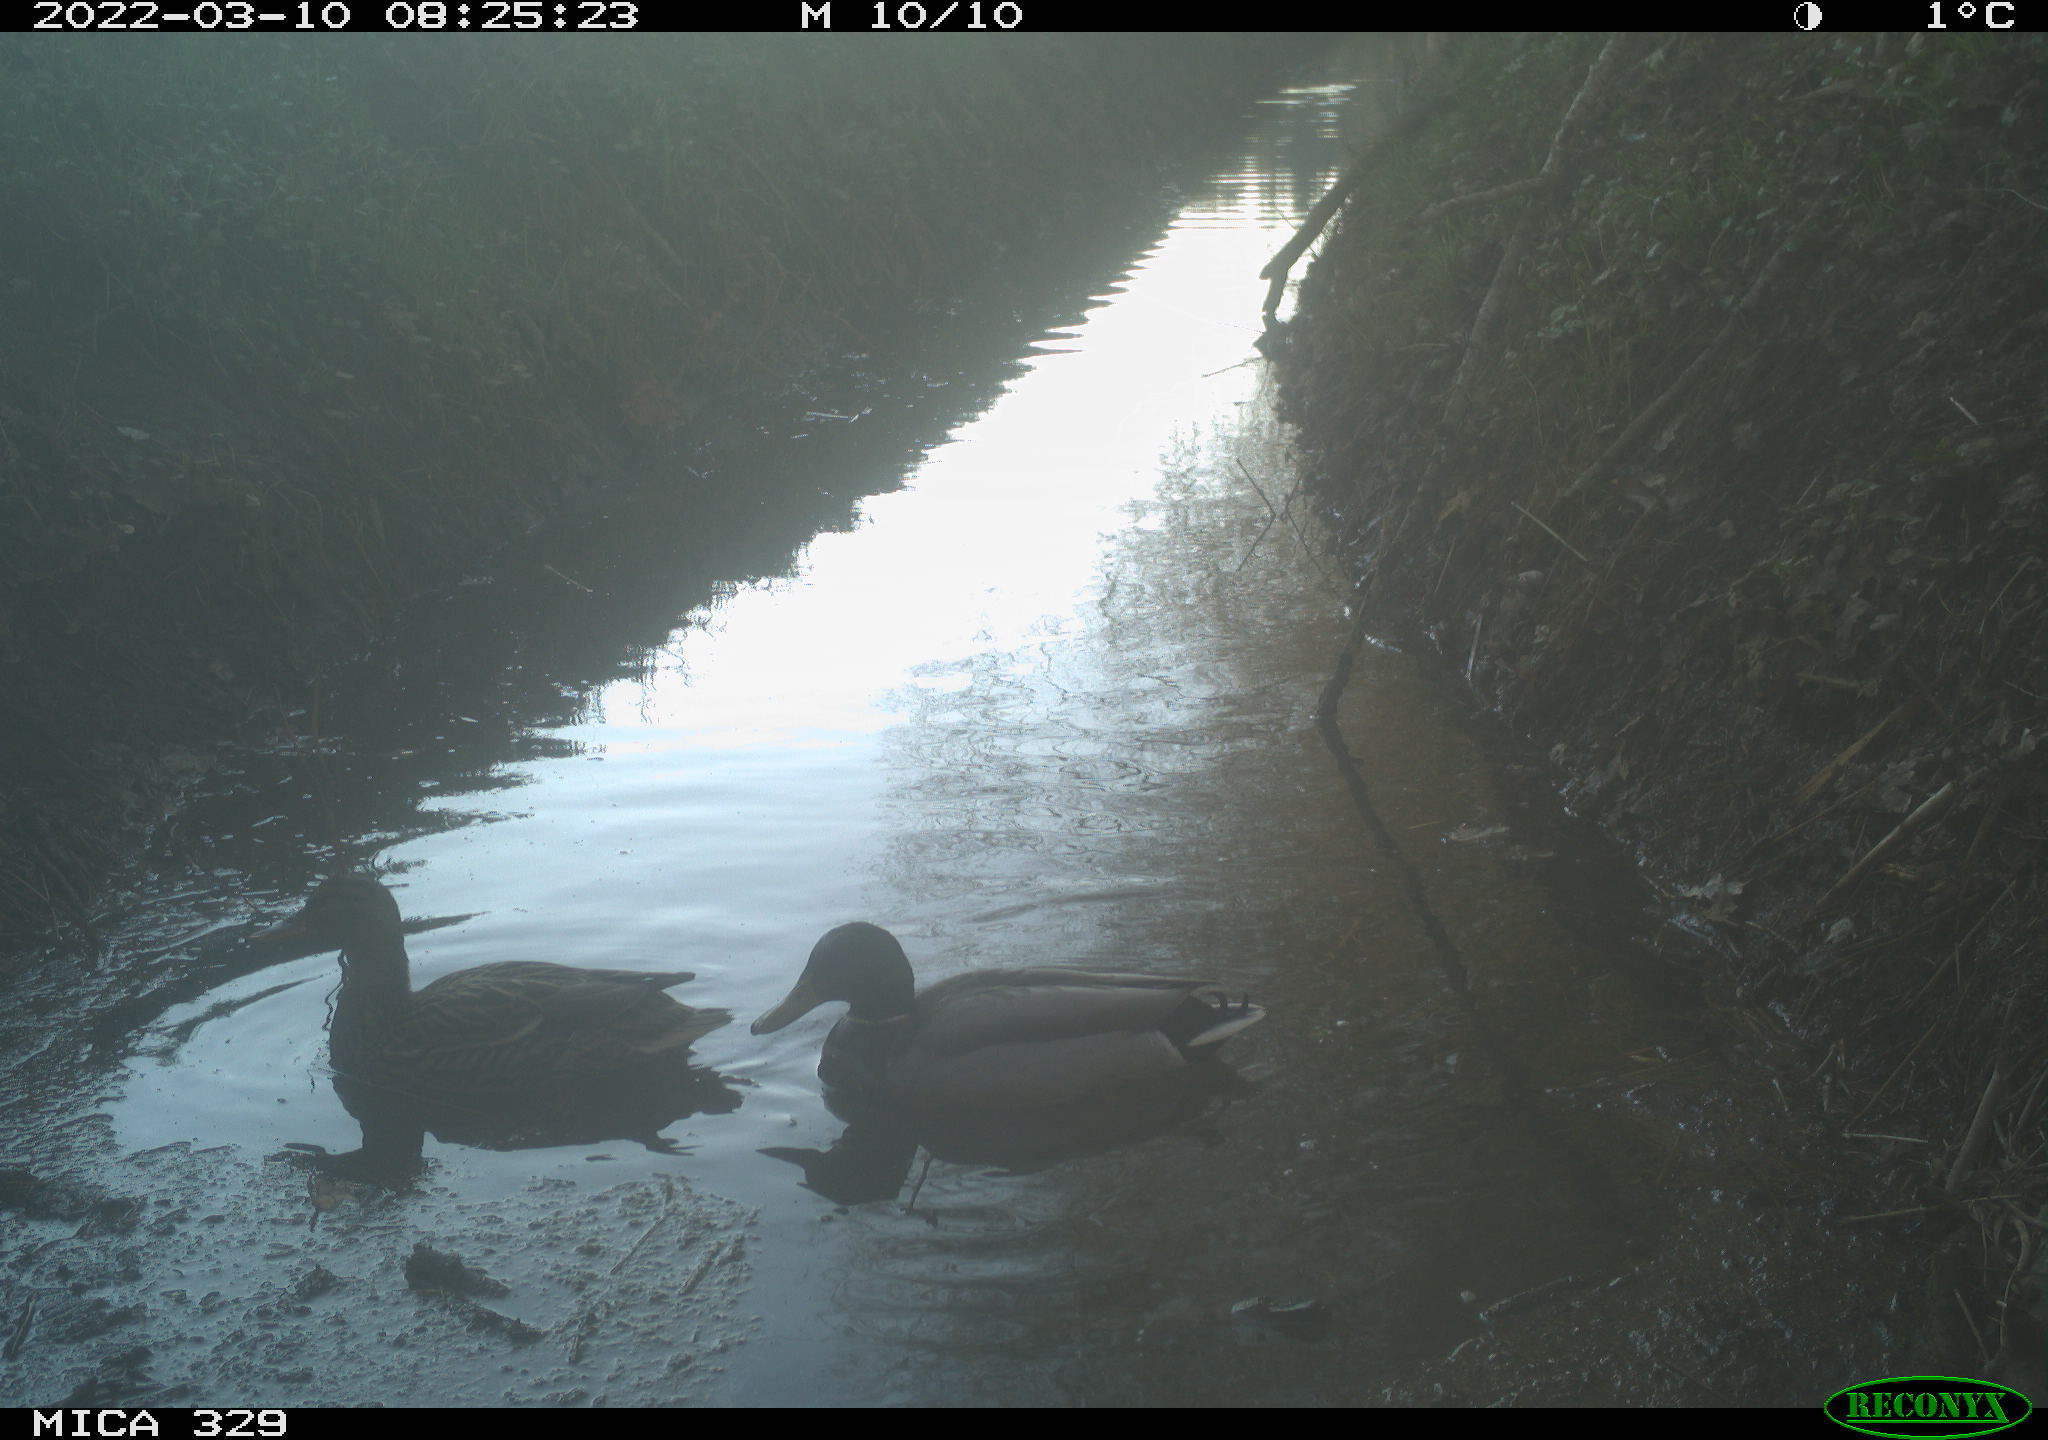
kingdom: Animalia
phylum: Chordata
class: Aves
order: Anseriformes
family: Anatidae
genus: Anas
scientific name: Anas platyrhynchos
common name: Mallard
